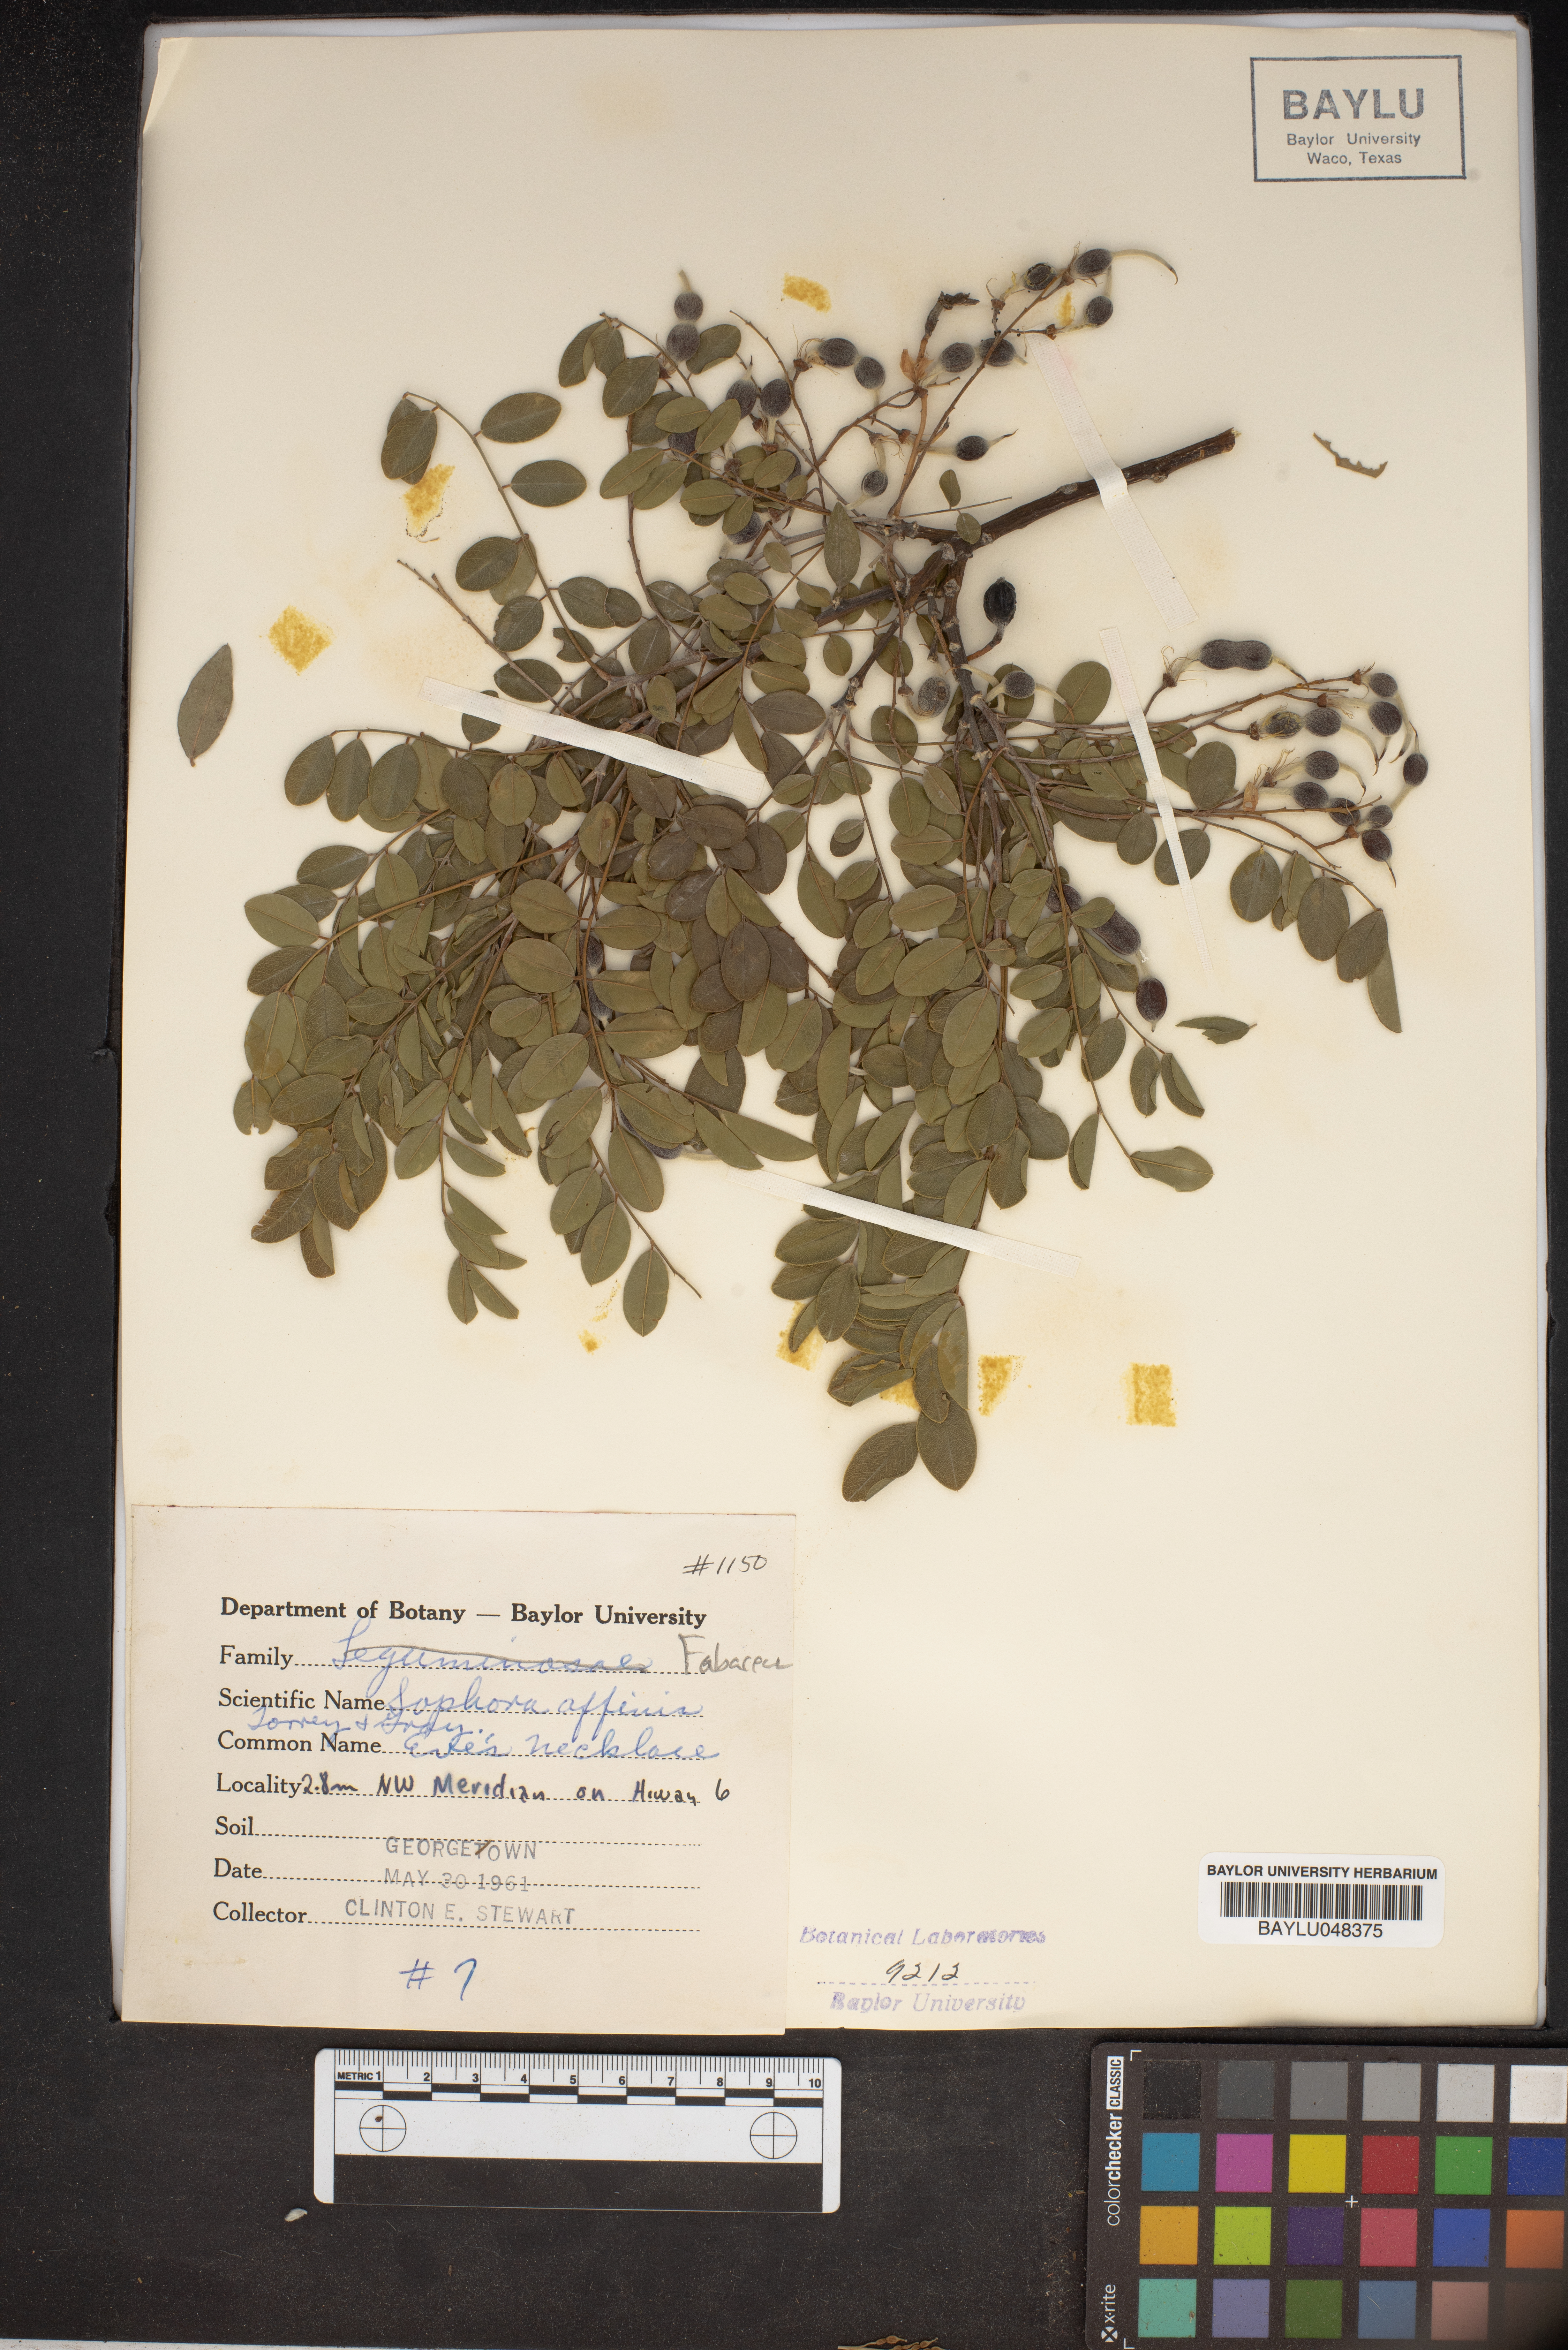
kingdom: Plantae
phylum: Tracheophyta
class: Magnoliopsida
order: Fabales
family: Fabaceae
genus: Styphnolobium
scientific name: Styphnolobium affine
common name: Texas sophora
